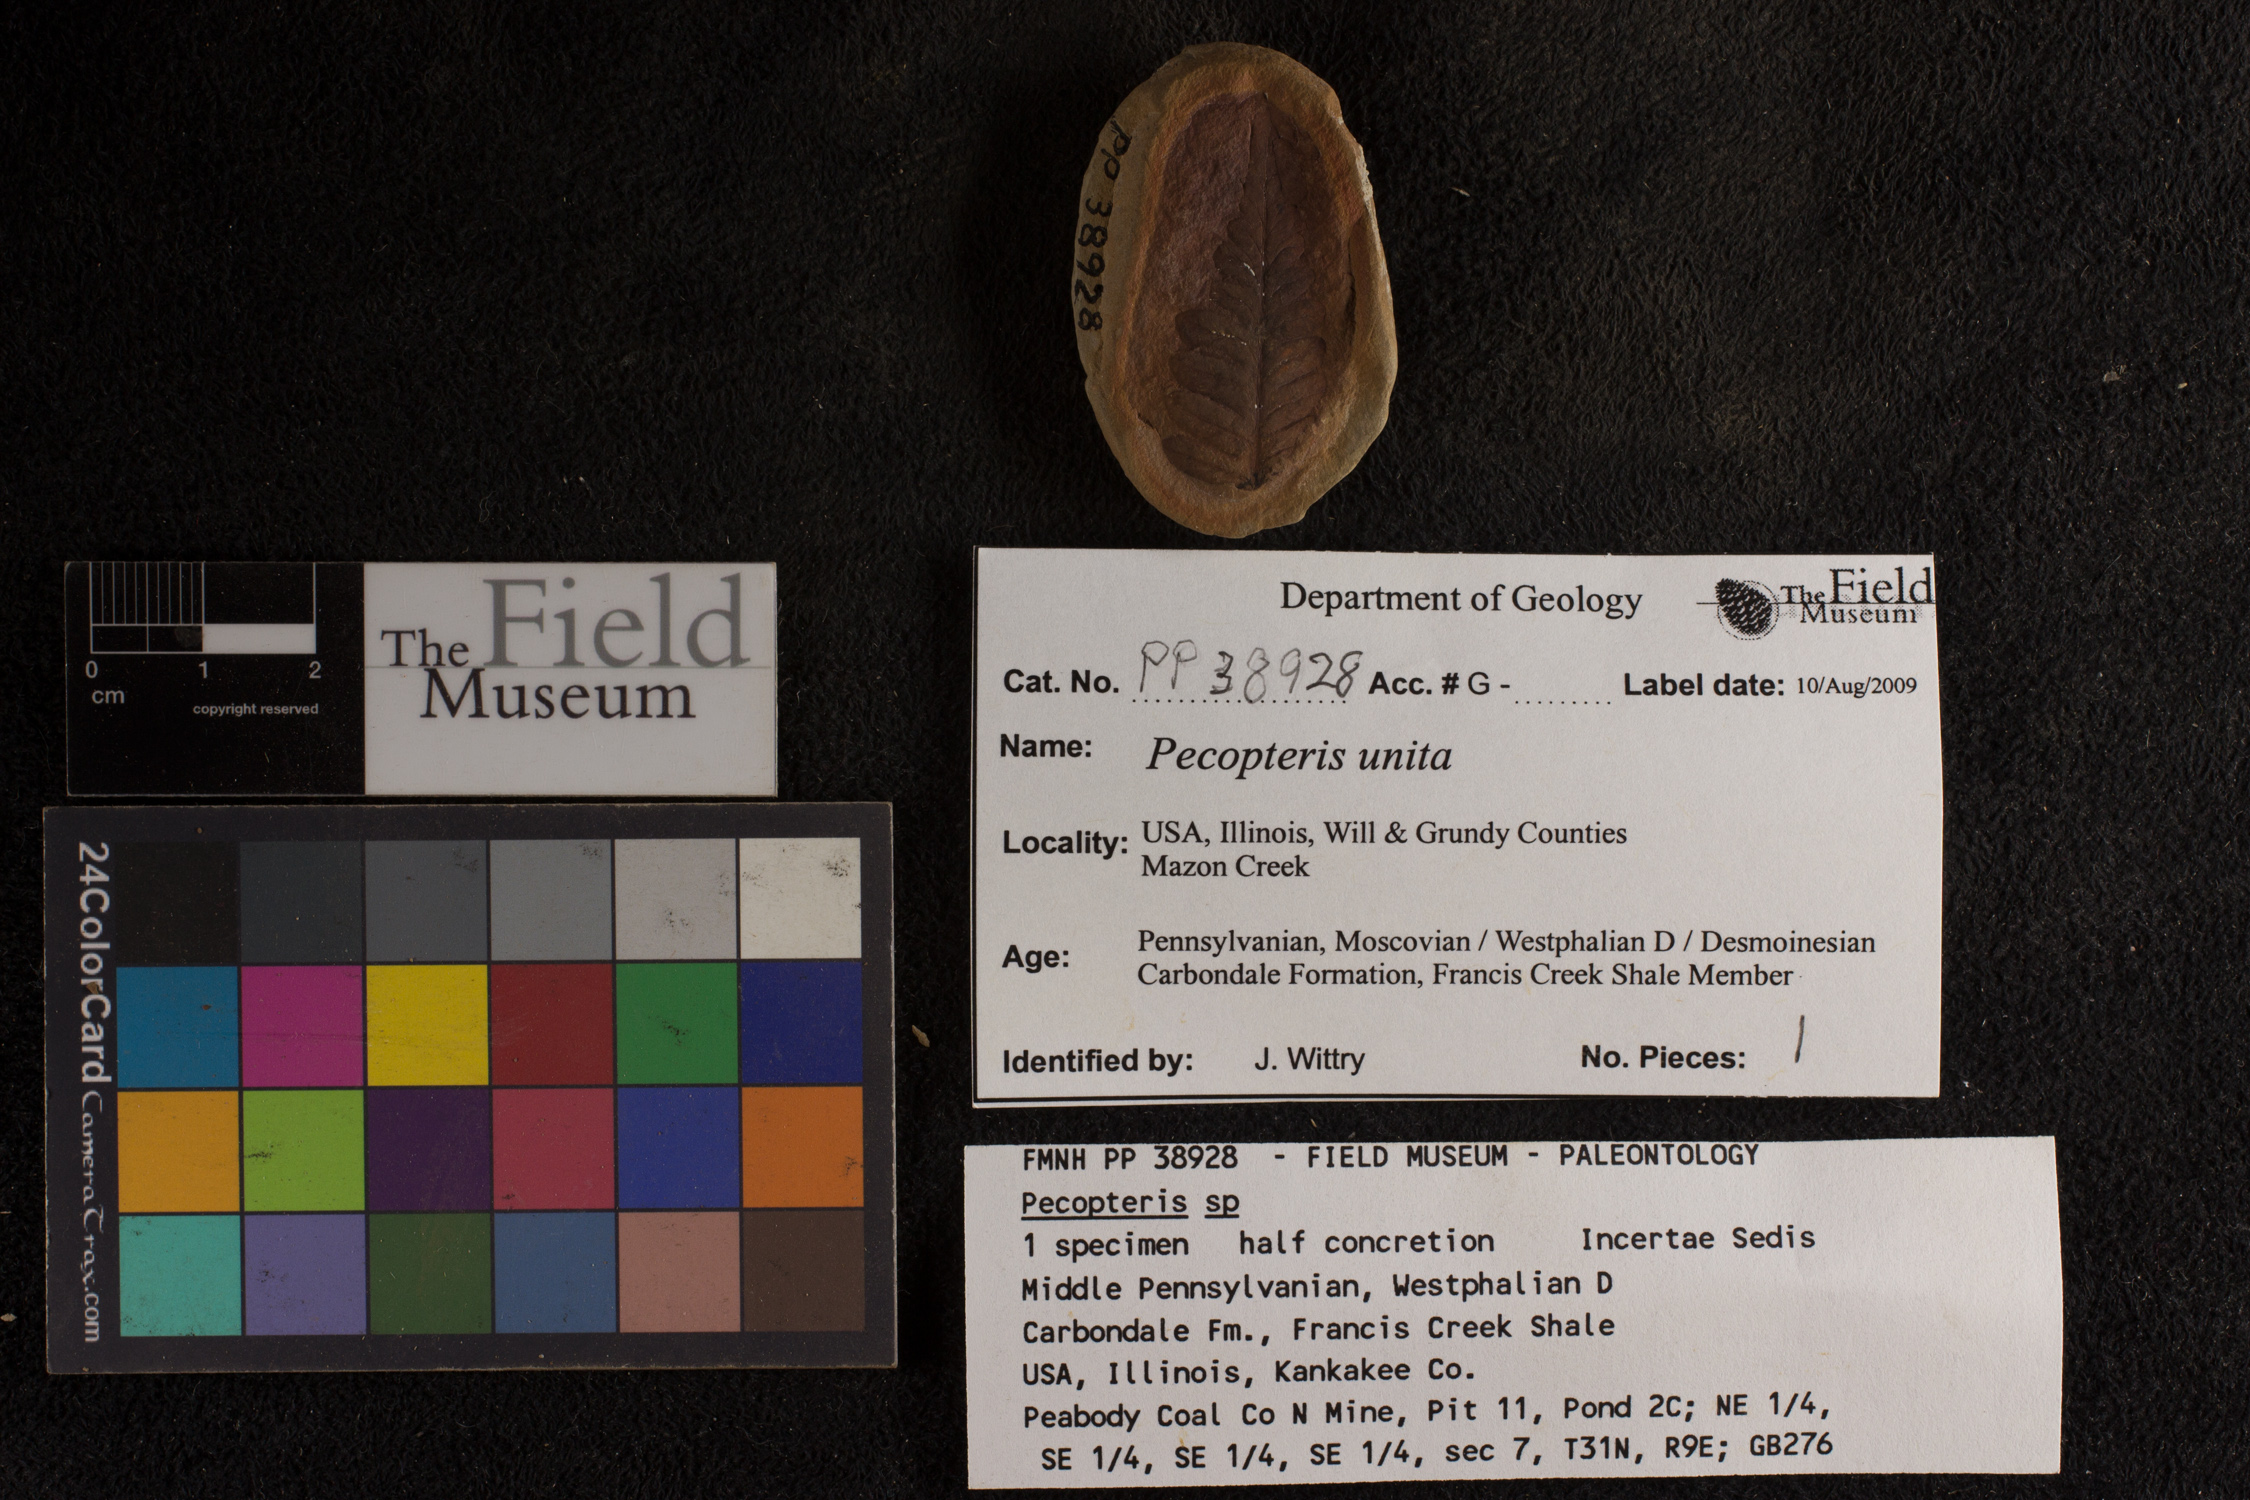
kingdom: Plantae
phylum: Tracheophyta
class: Polypodiopsida
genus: Diplazites
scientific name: Diplazites
